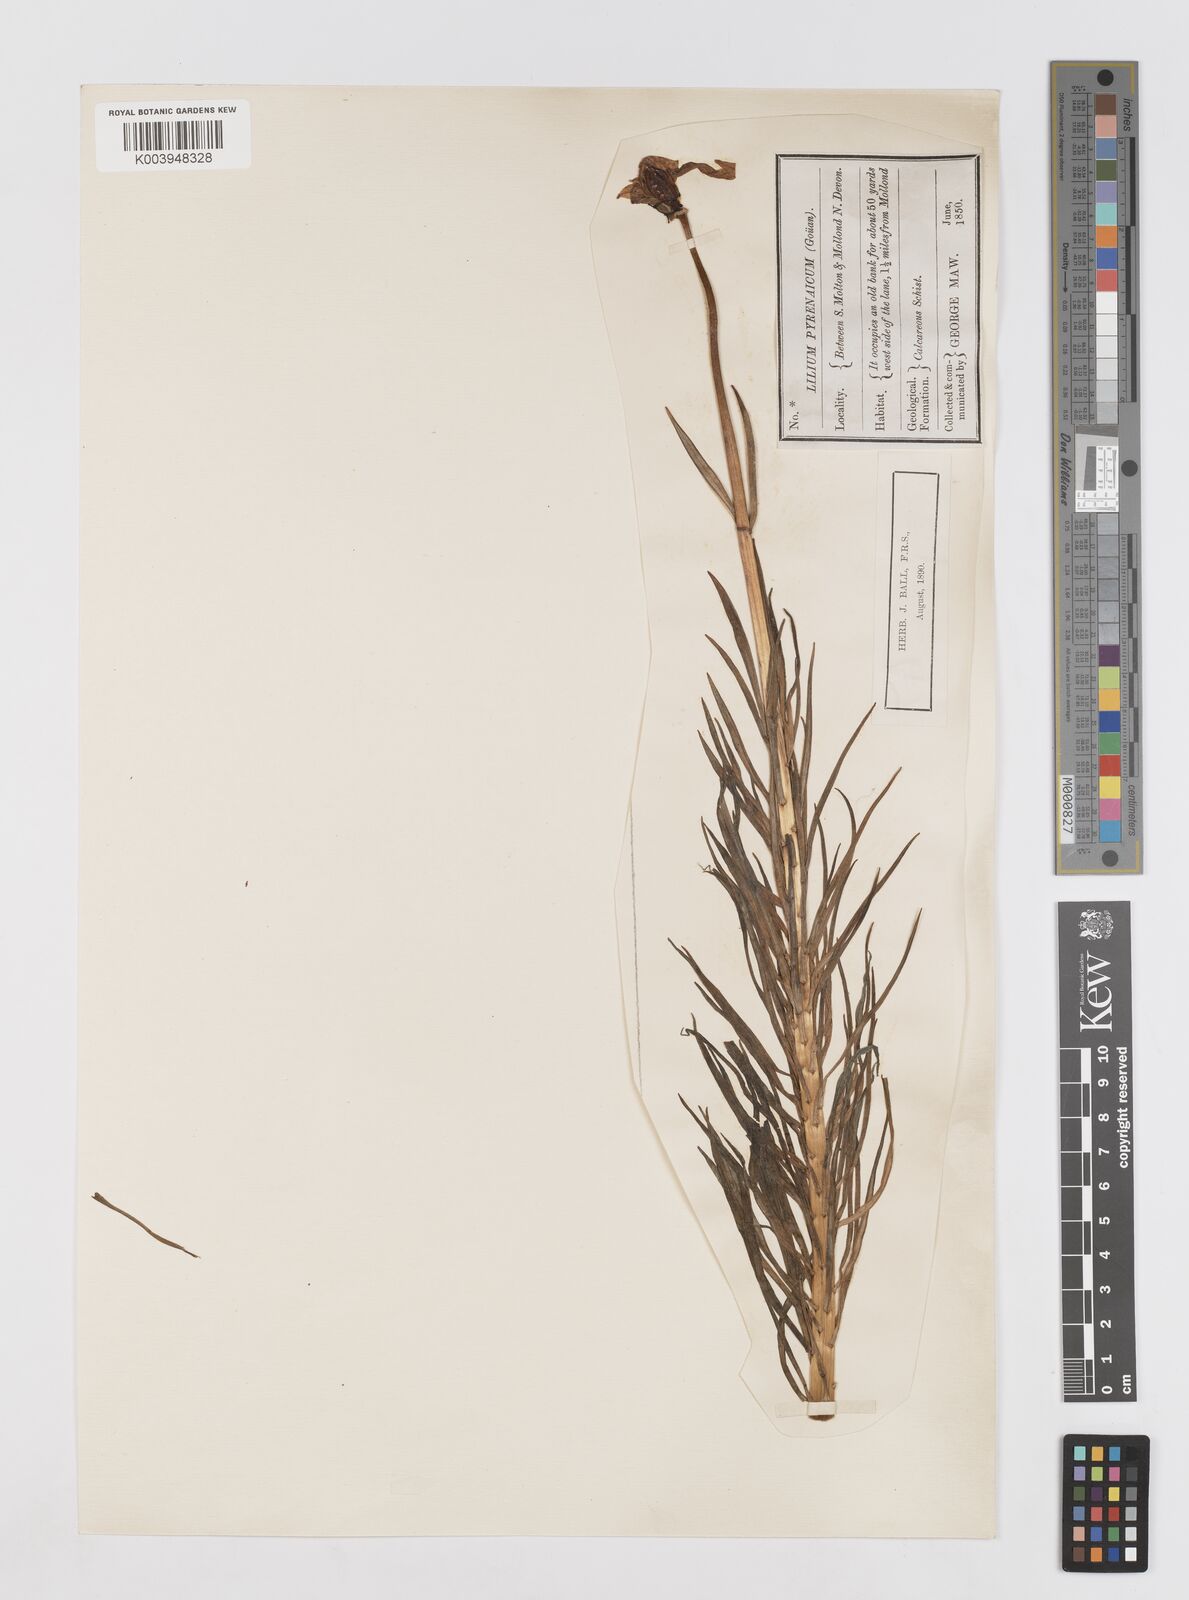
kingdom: Plantae
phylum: Tracheophyta
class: Liliopsida
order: Liliales
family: Liliaceae
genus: Lilium
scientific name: Lilium pyrenaicum
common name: Pyrenean lily
